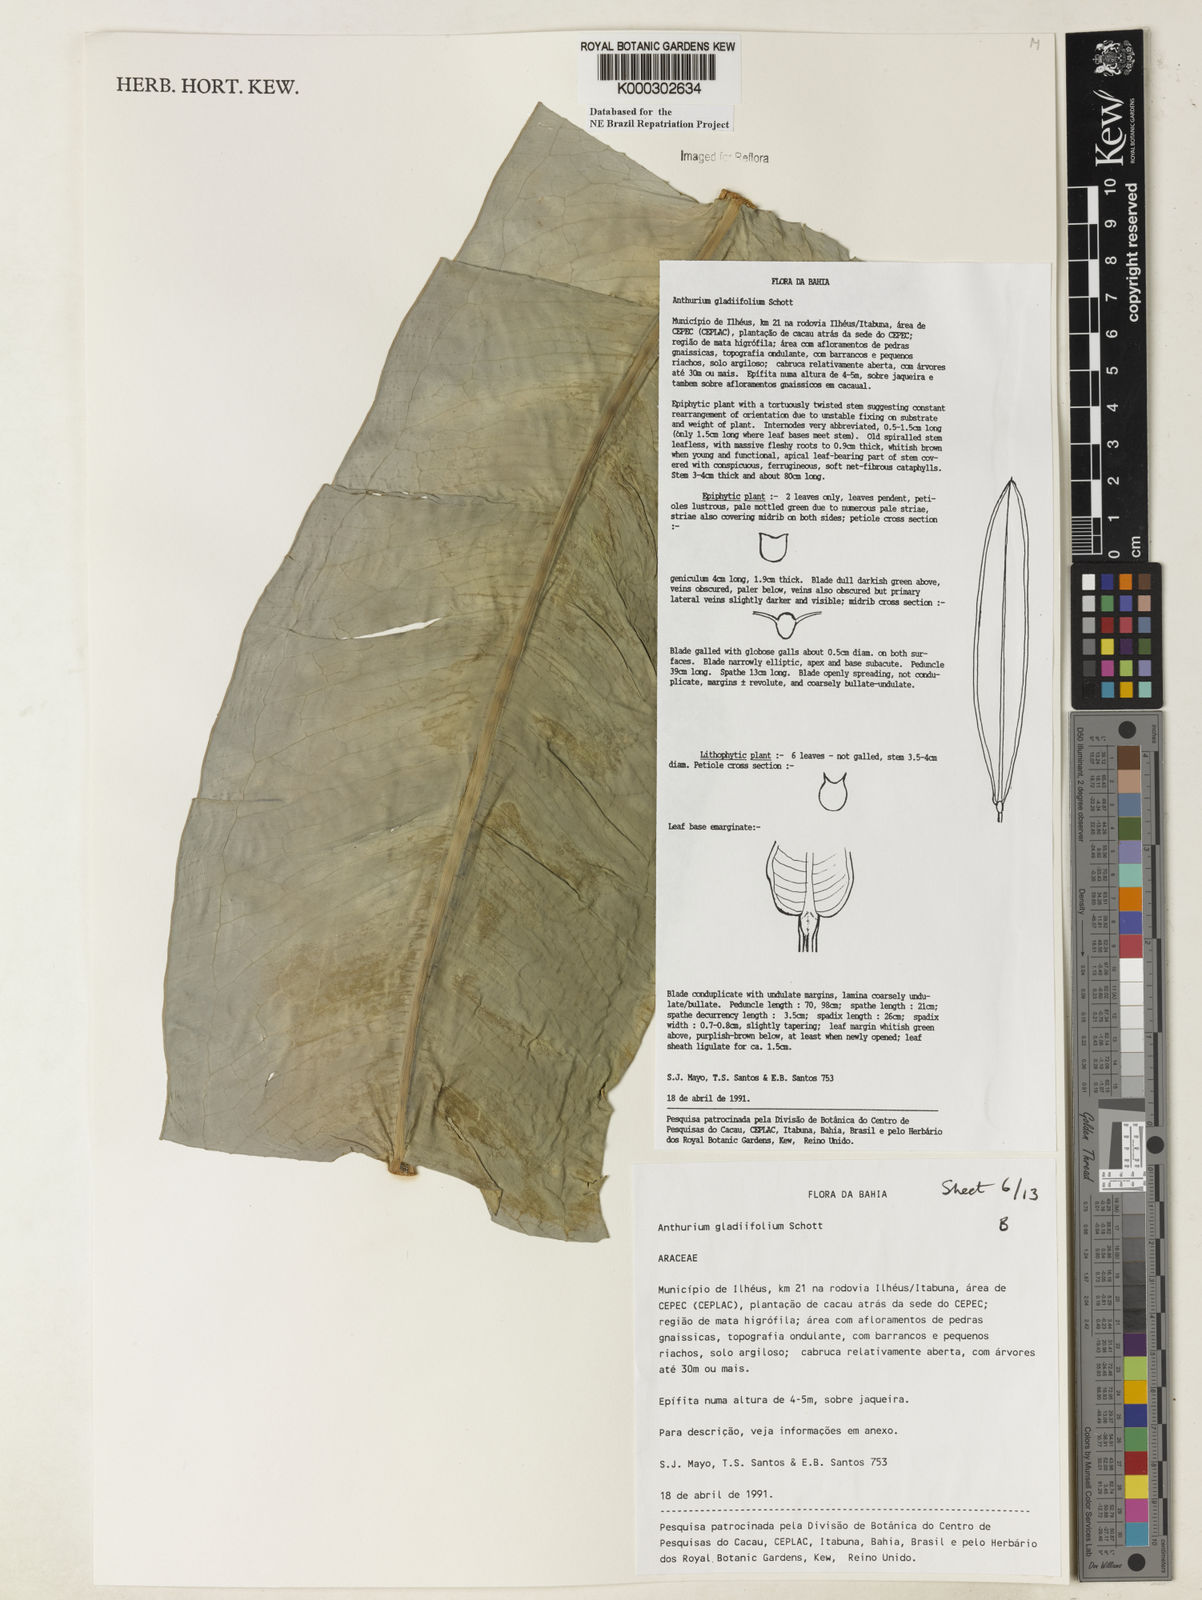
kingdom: Plantae
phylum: Tracheophyta
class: Liliopsida
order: Alismatales
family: Araceae
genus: Anthurium
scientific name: Anthurium gladiifolium
